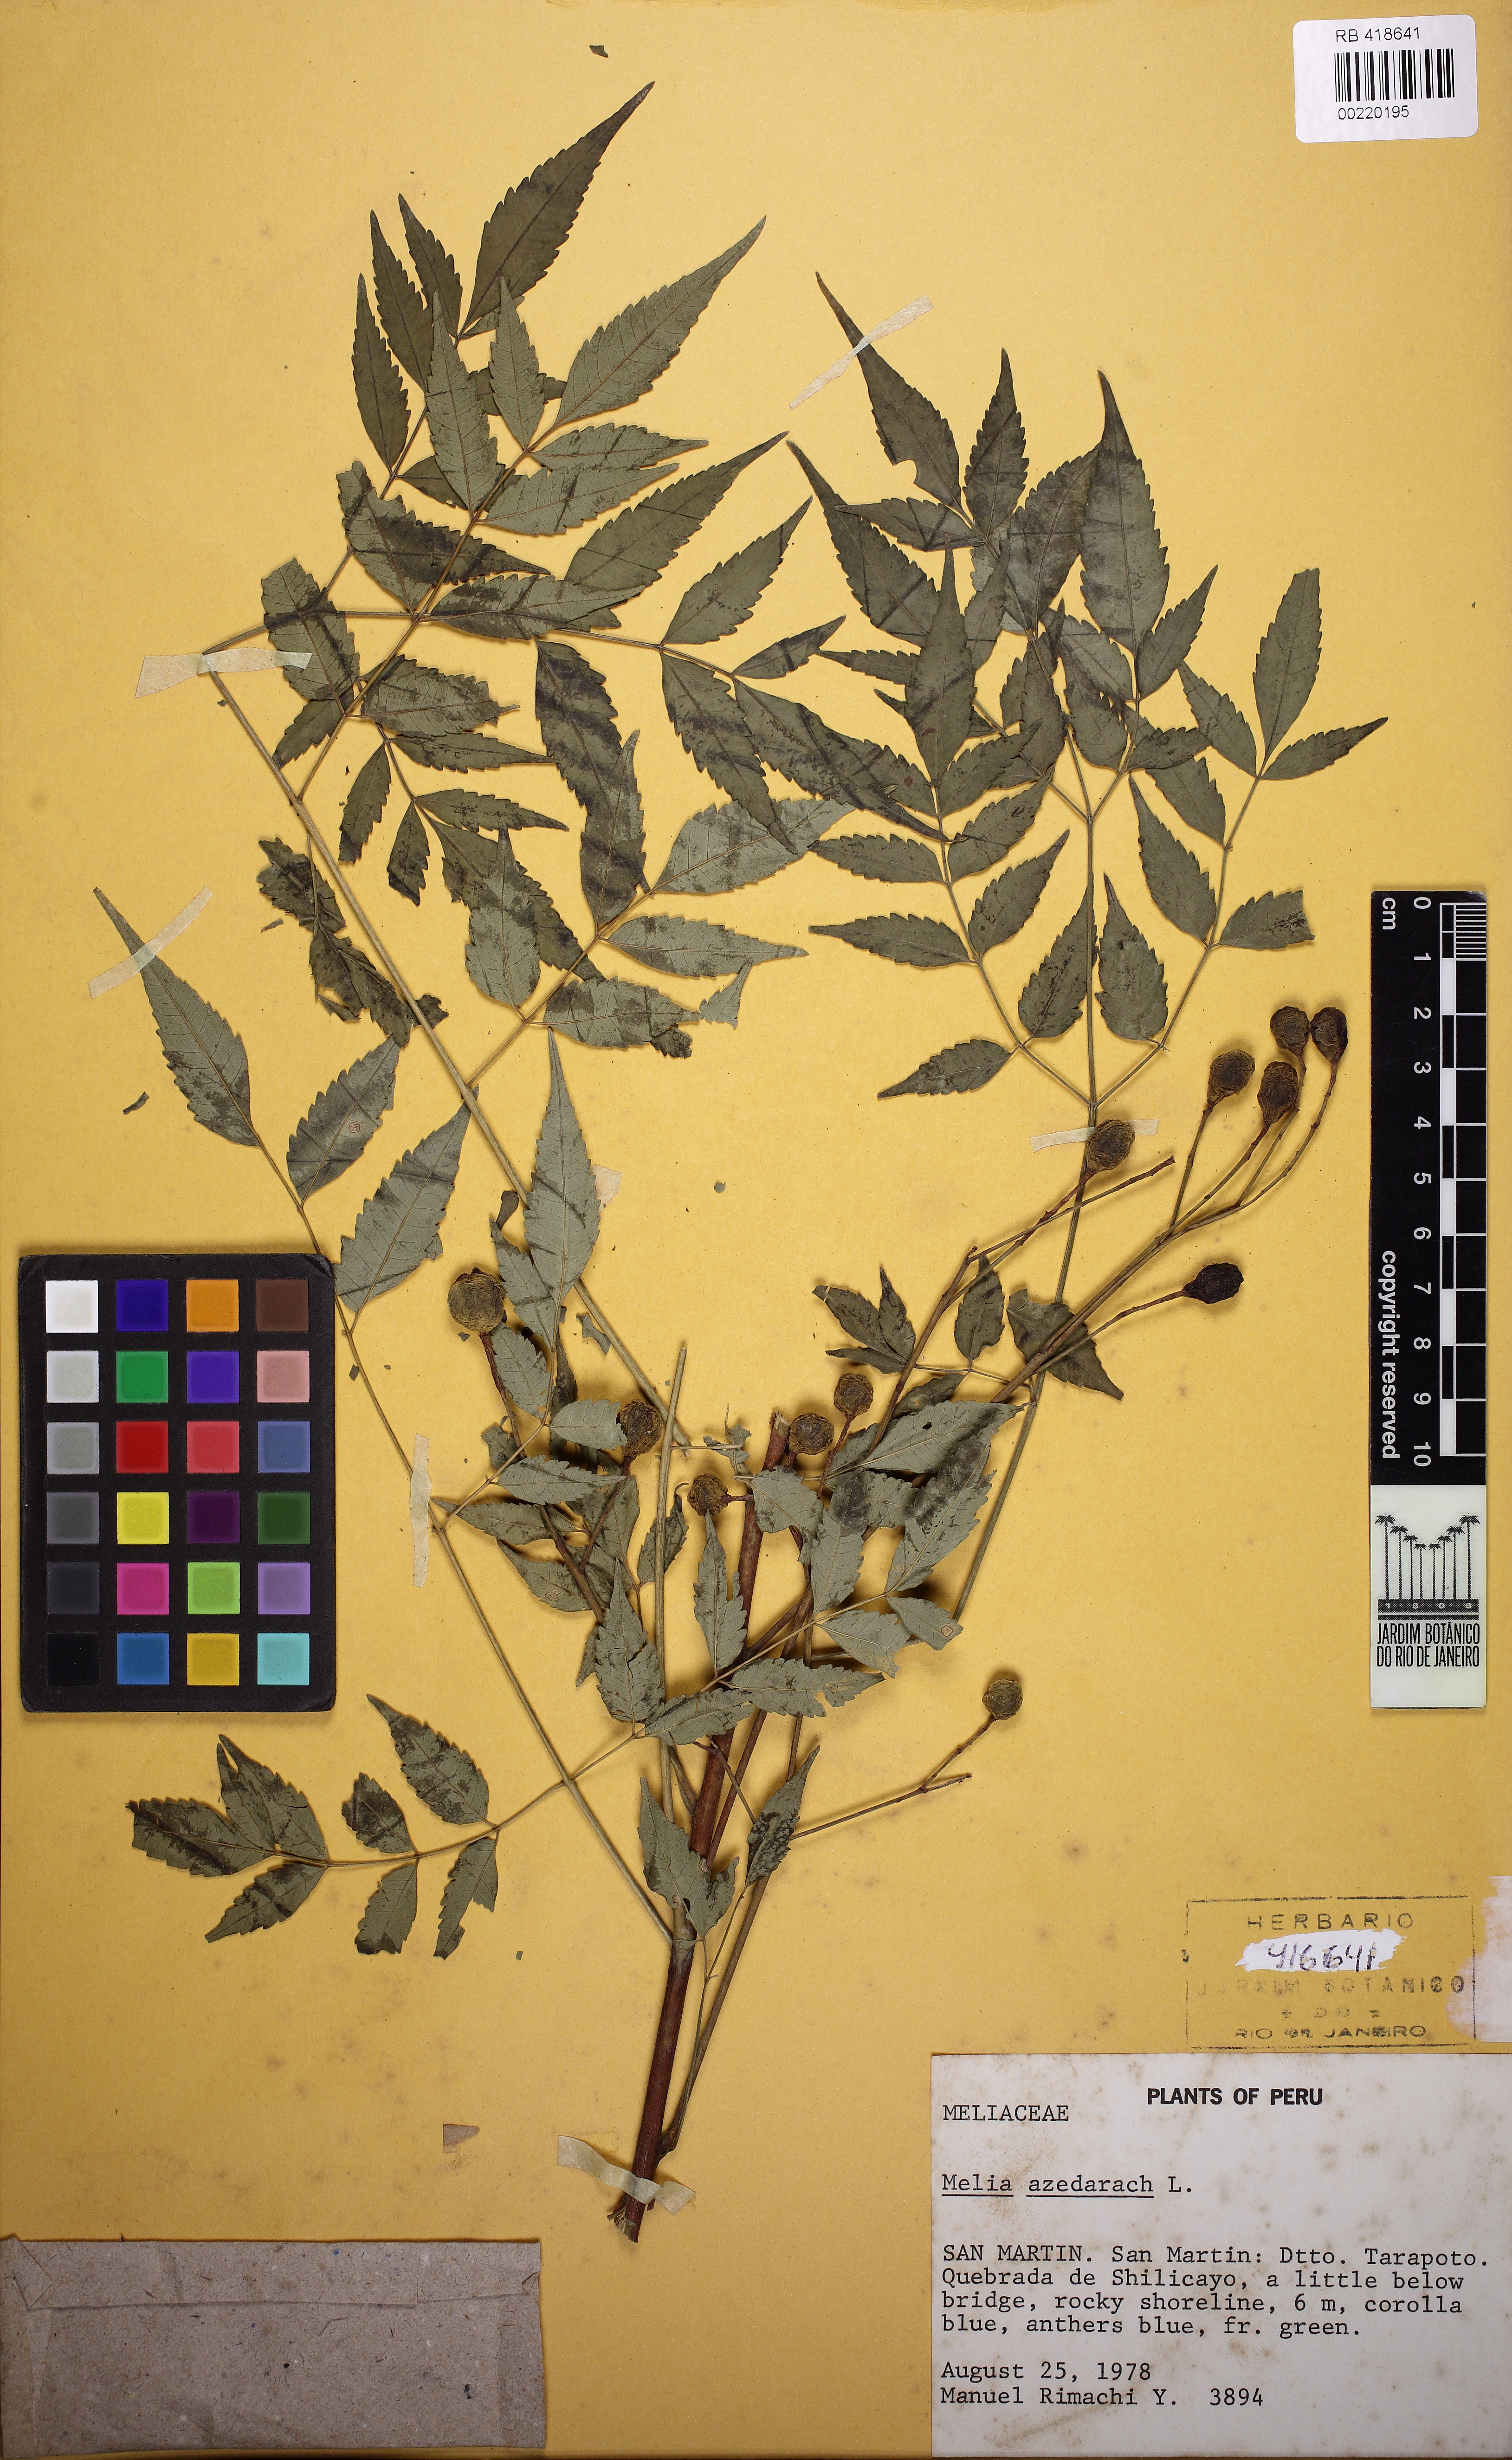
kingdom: Plantae
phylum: Tracheophyta
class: Magnoliopsida
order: Sapindales
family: Meliaceae
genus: Melia
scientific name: Melia azedarach
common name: Chinaberrytree
